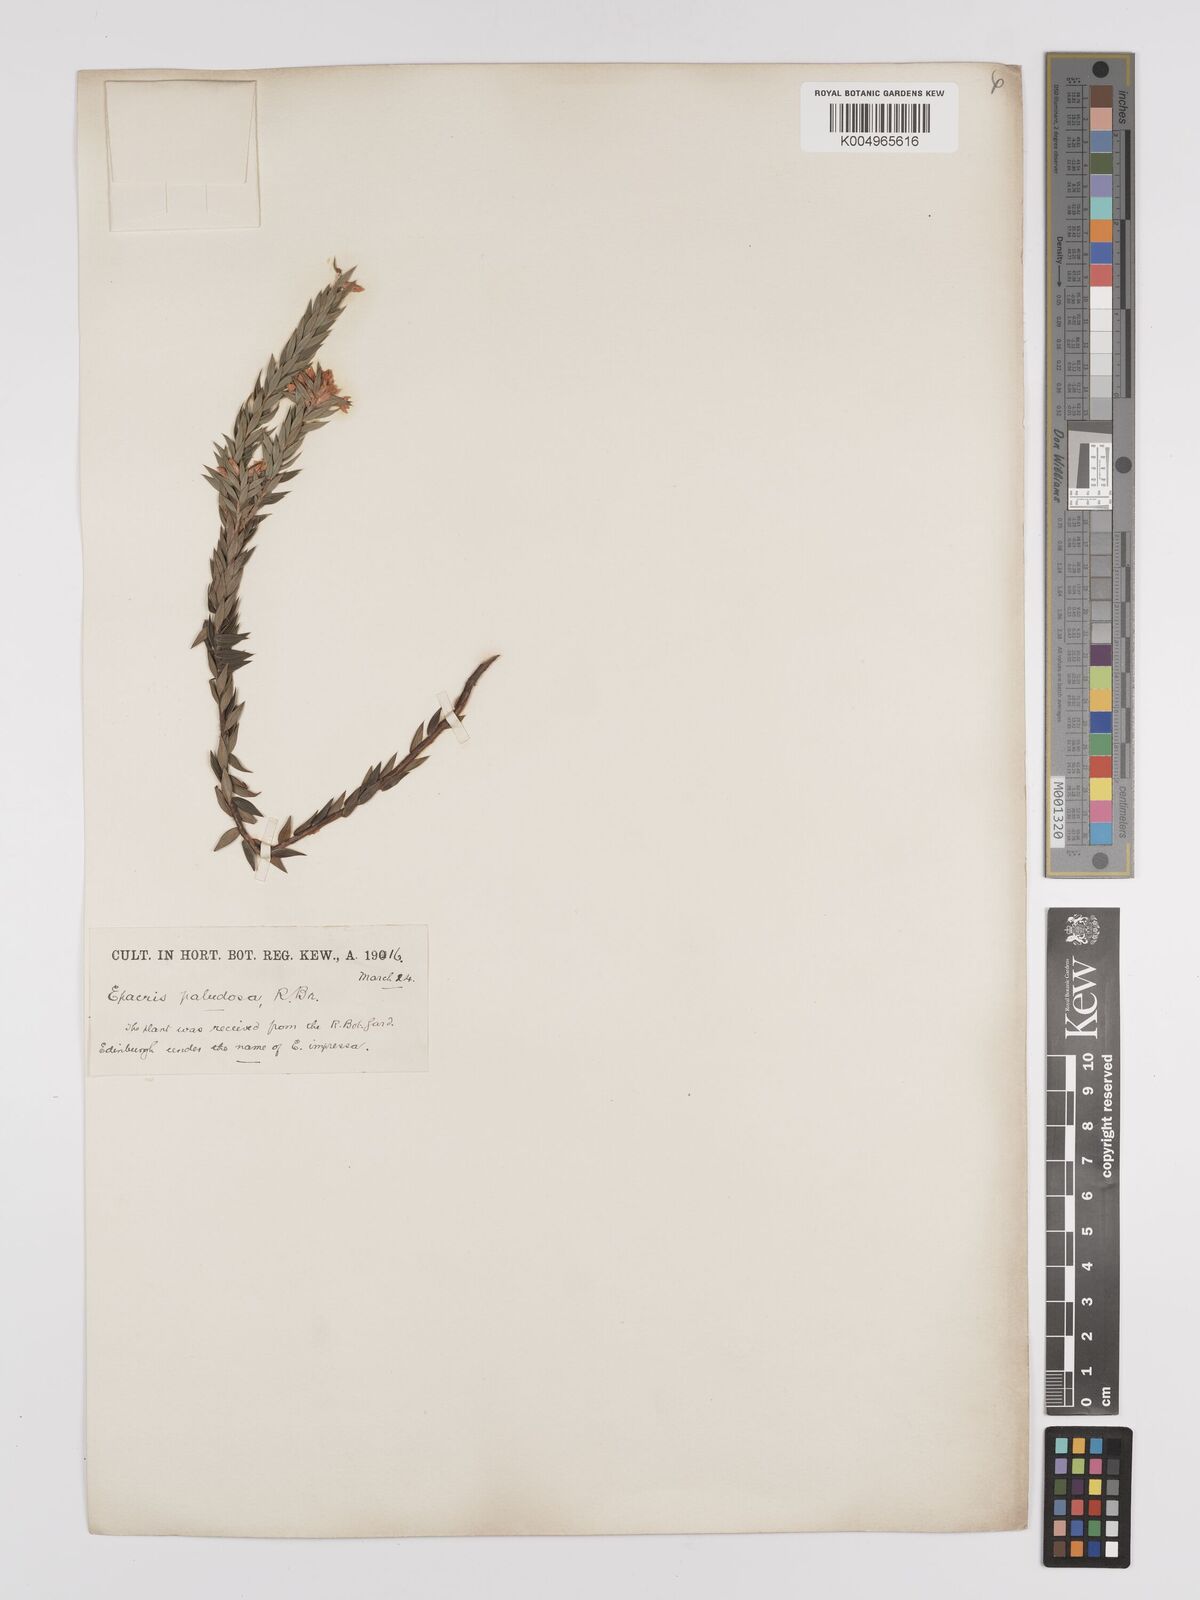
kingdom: Plantae
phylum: Tracheophyta
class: Magnoliopsida
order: Ericales
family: Ericaceae
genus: Epacris
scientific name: Epacris paludosa
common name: Swamp-heath
